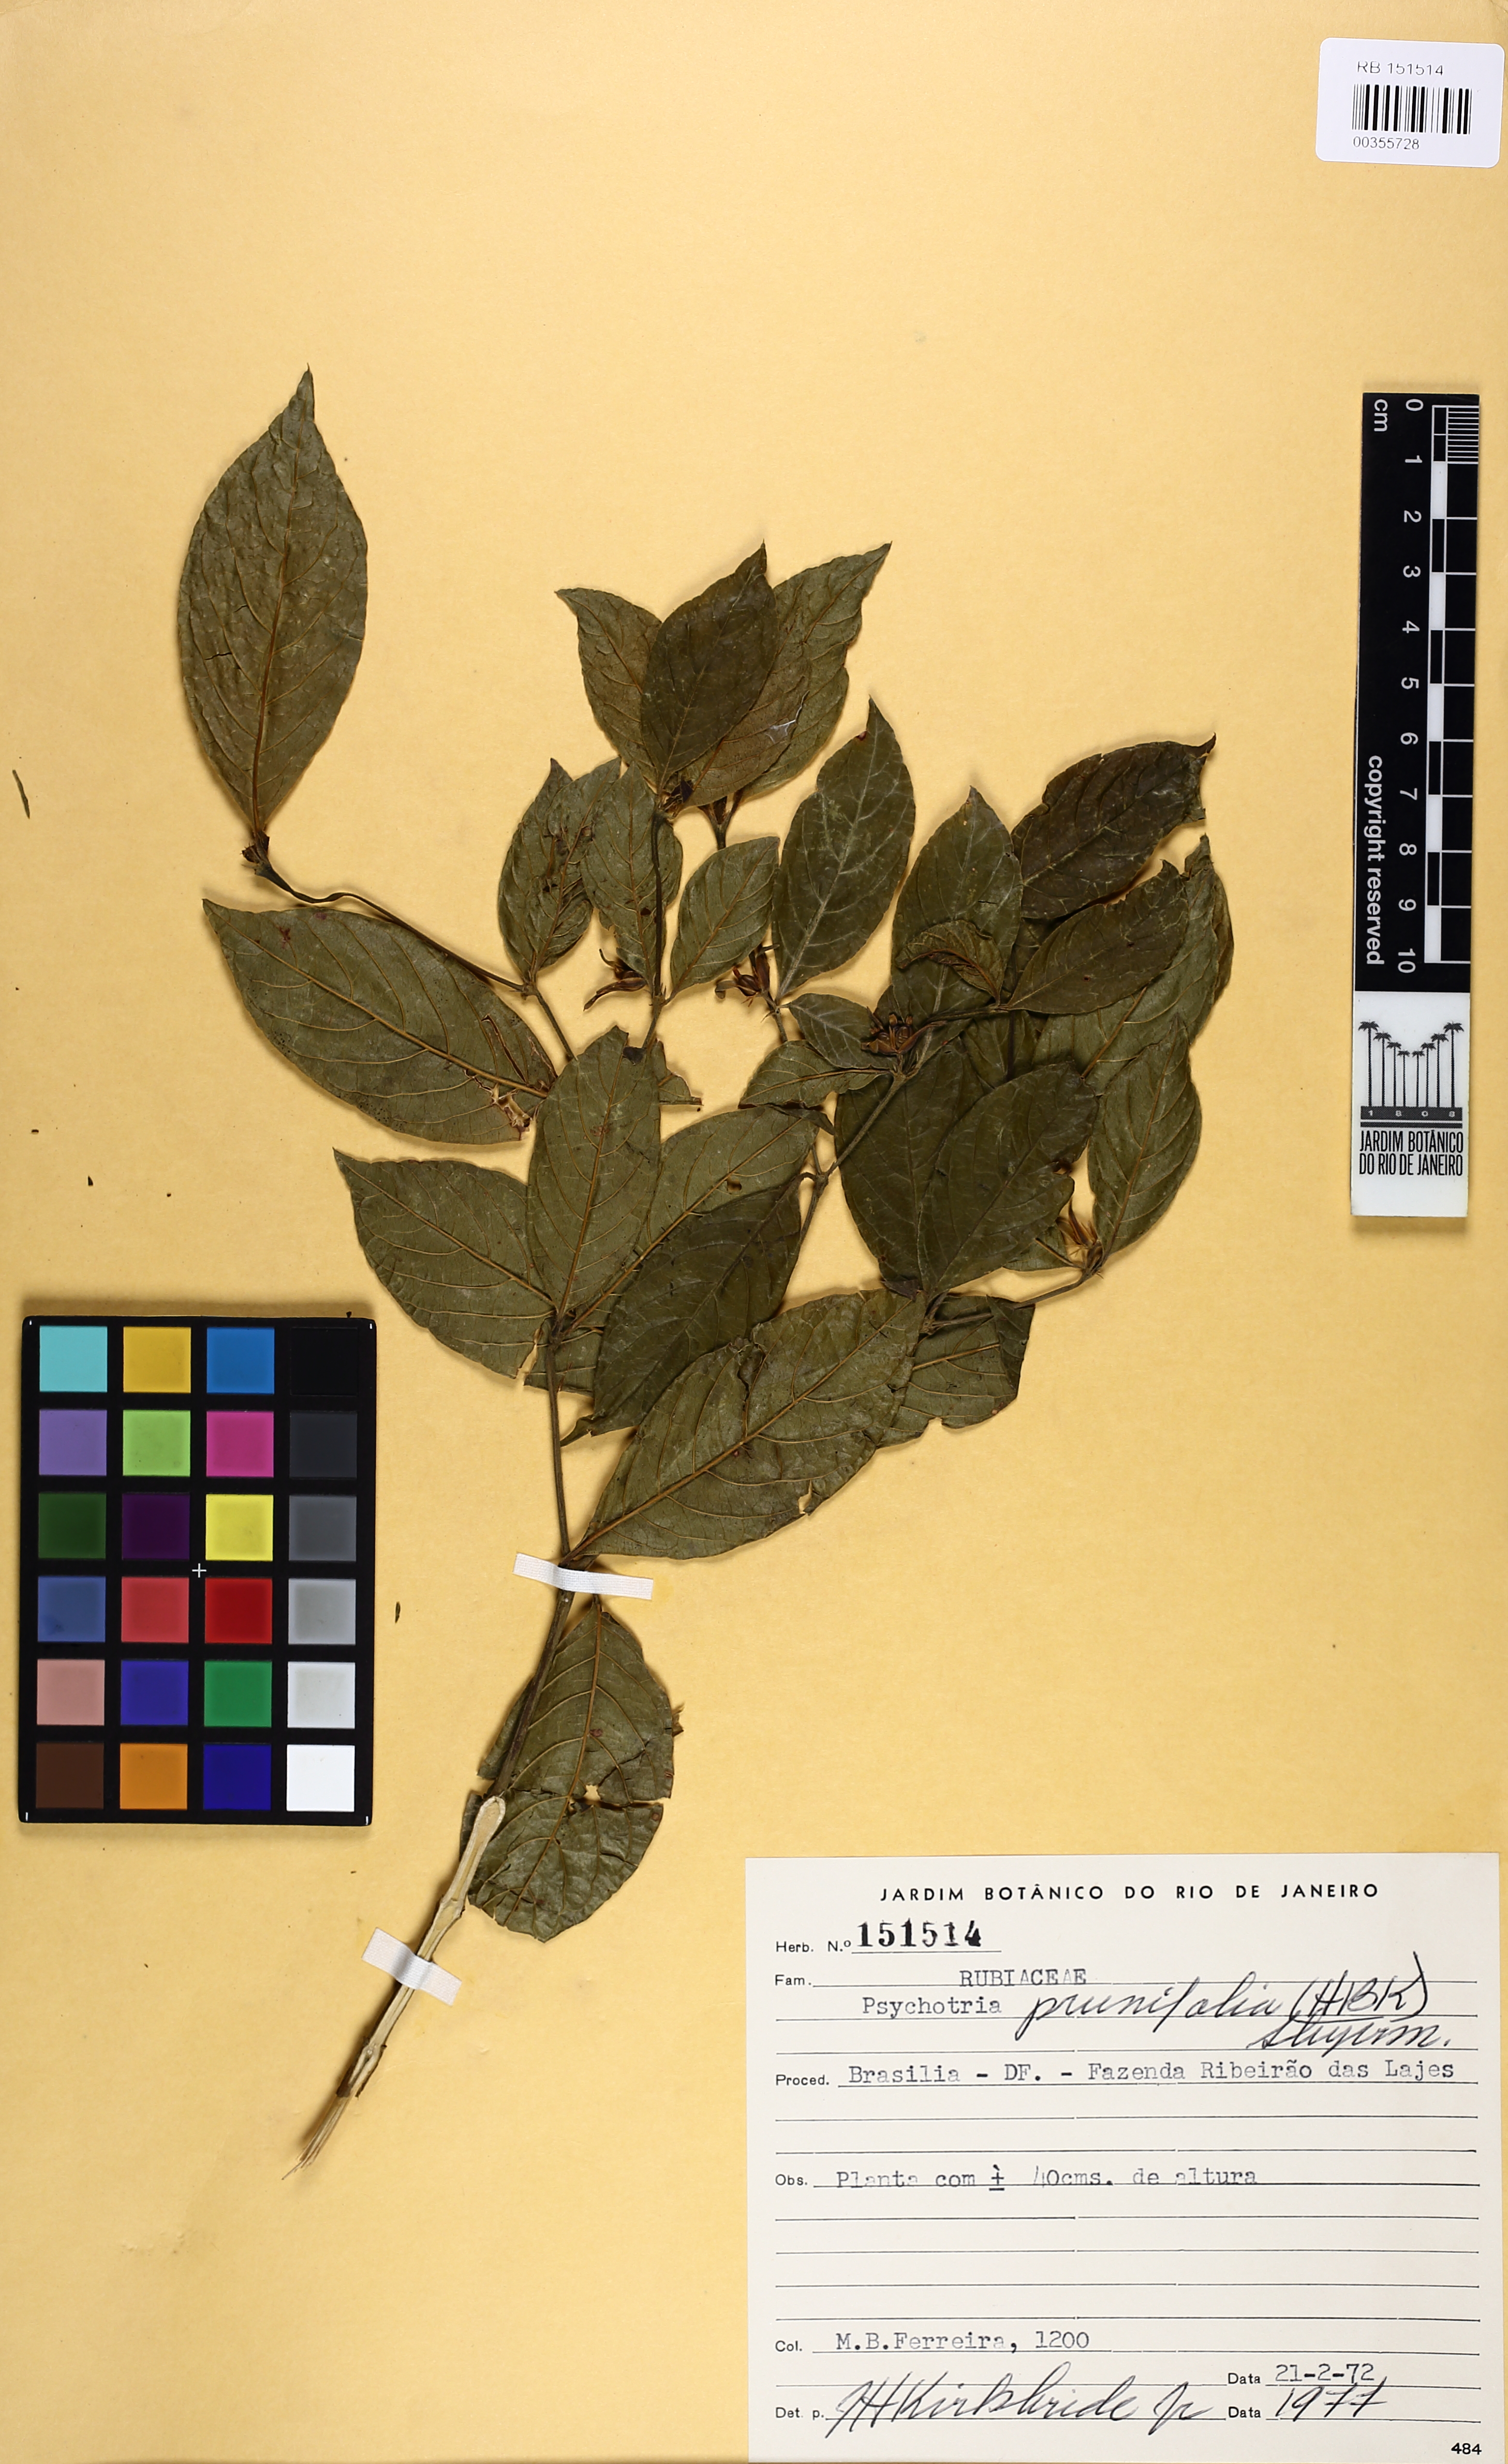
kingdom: Plantae
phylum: Tracheophyta
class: Magnoliopsida
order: Gentianales
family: Rubiaceae
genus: Palicourea
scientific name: Palicourea prunifolia
